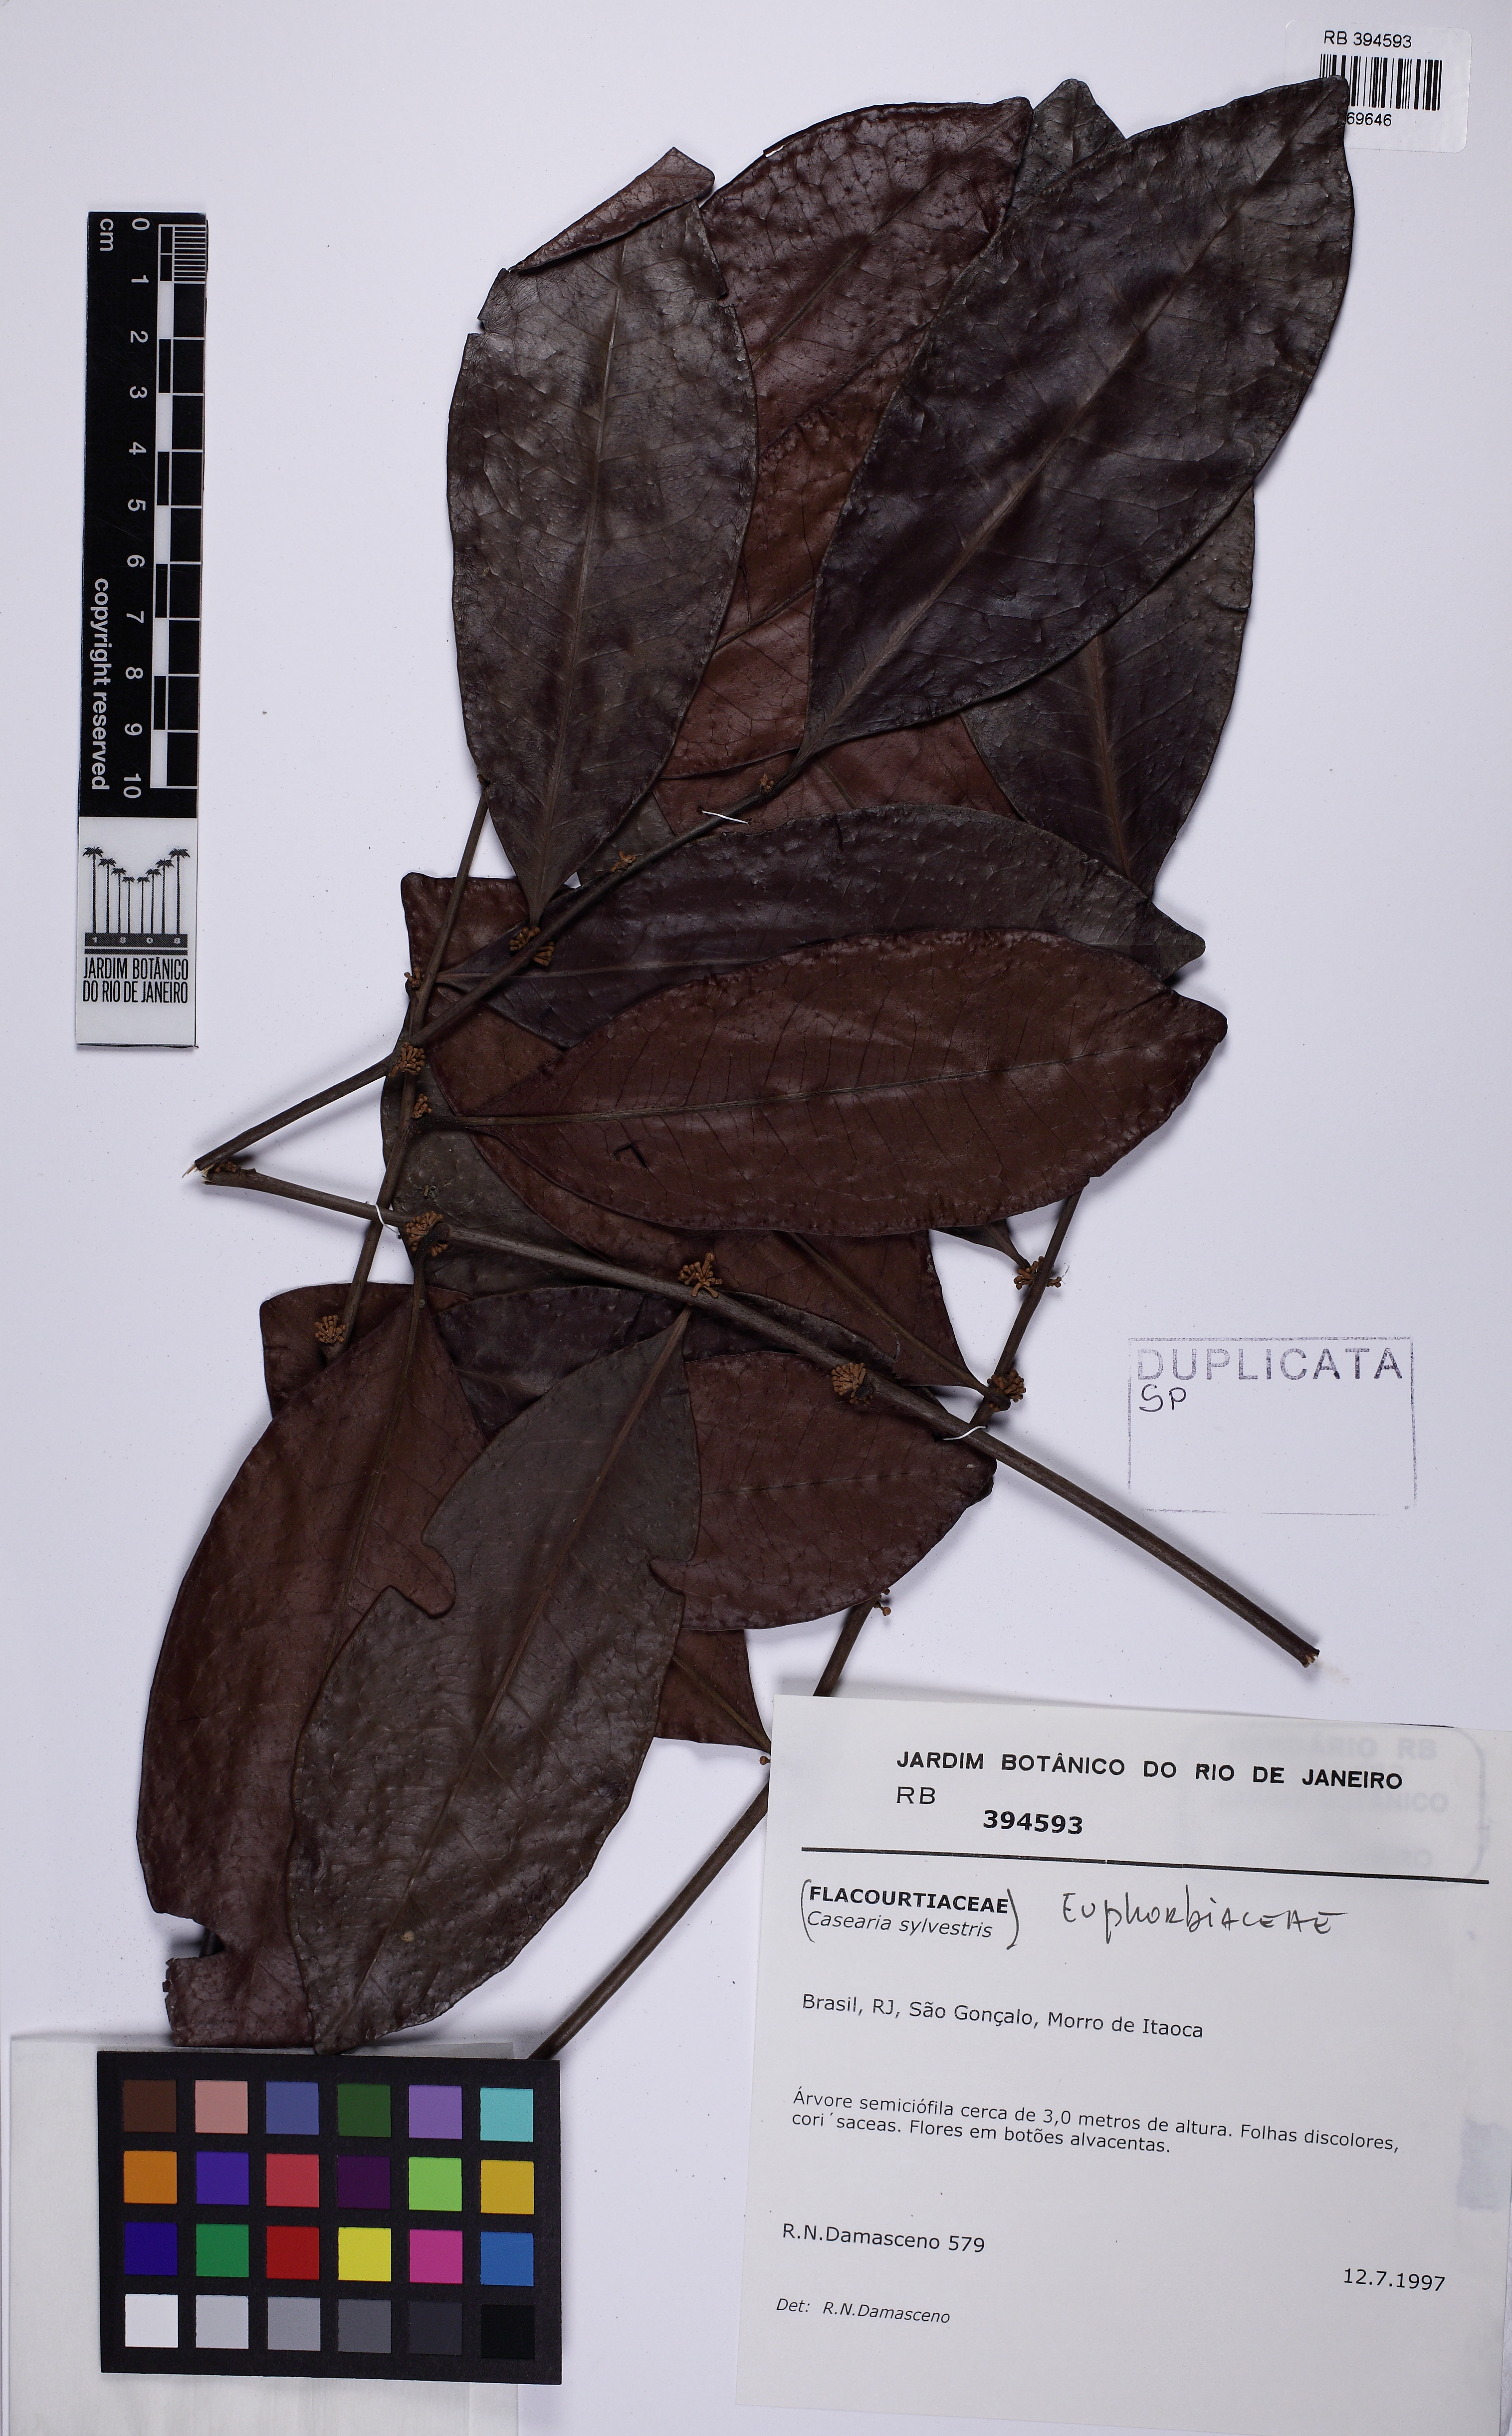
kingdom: Plantae
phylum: Tracheophyta
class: Magnoliopsida
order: Malpighiales
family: Euphorbiaceae
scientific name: Euphorbiaceae
